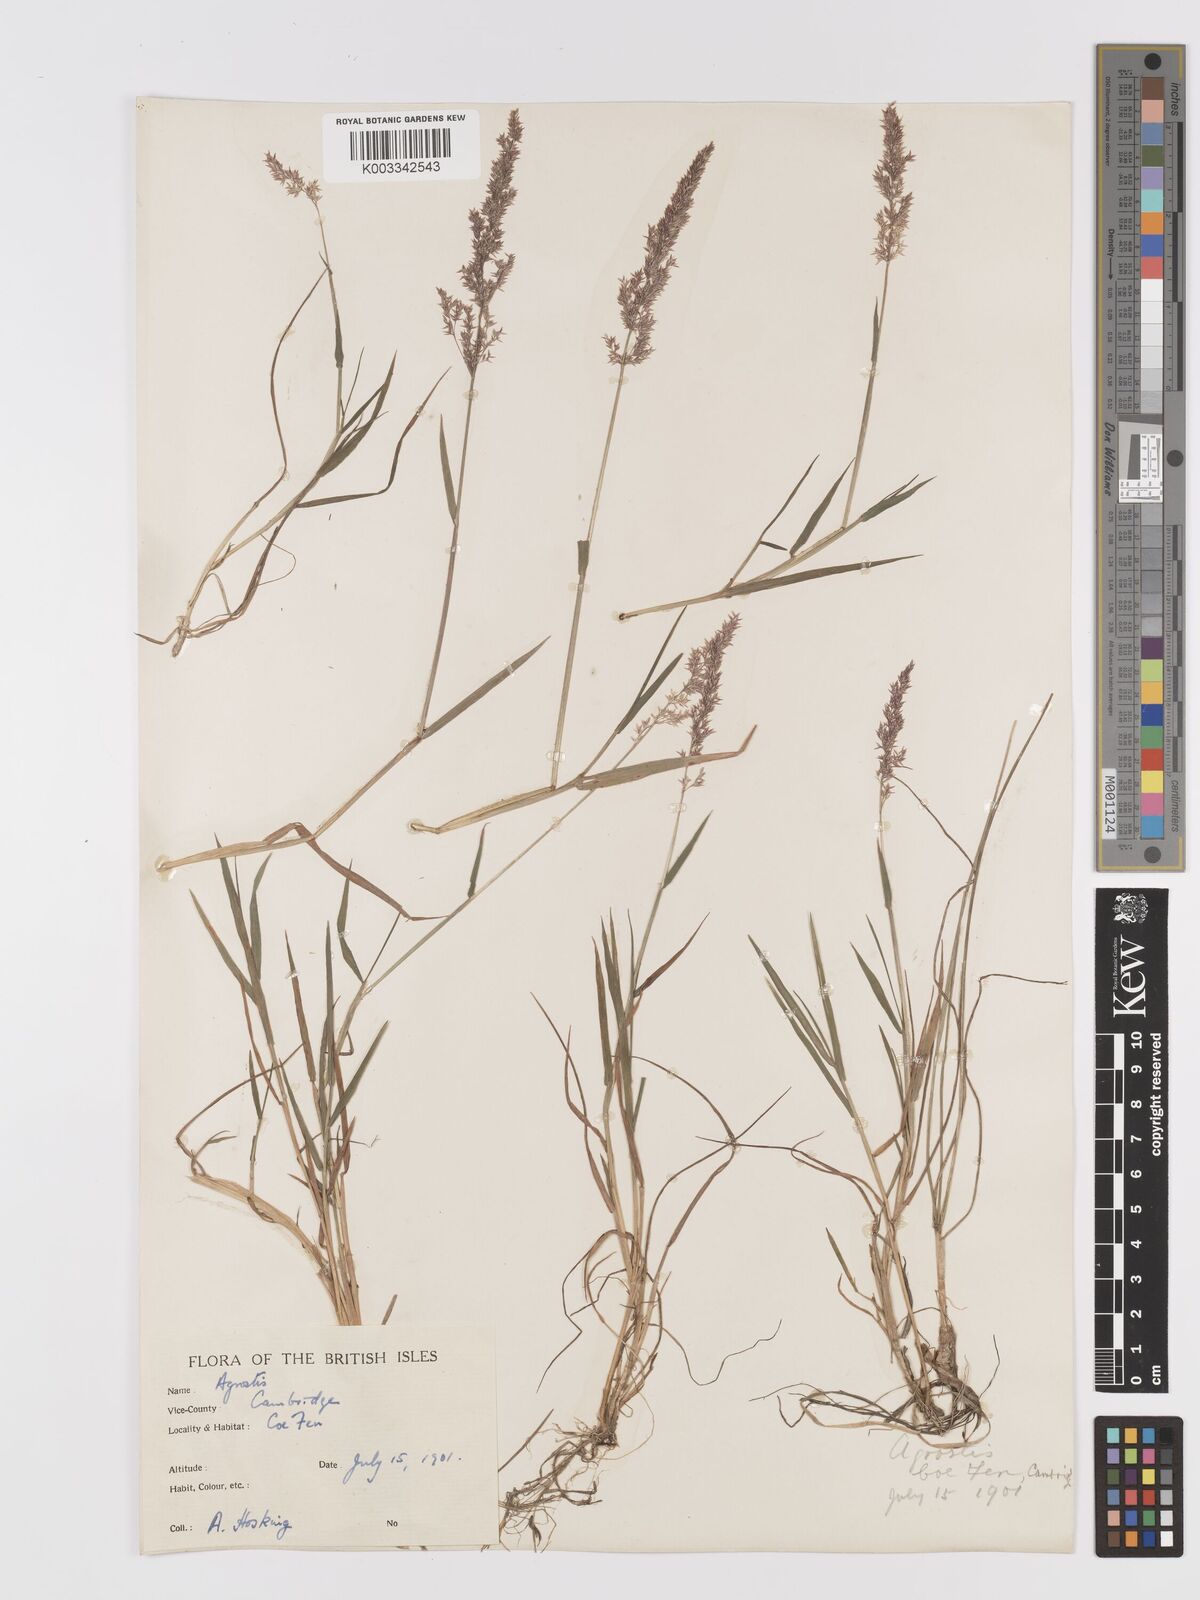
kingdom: Plantae
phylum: Tracheophyta
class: Liliopsida
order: Poales
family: Poaceae
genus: Agrostis
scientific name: Agrostis
